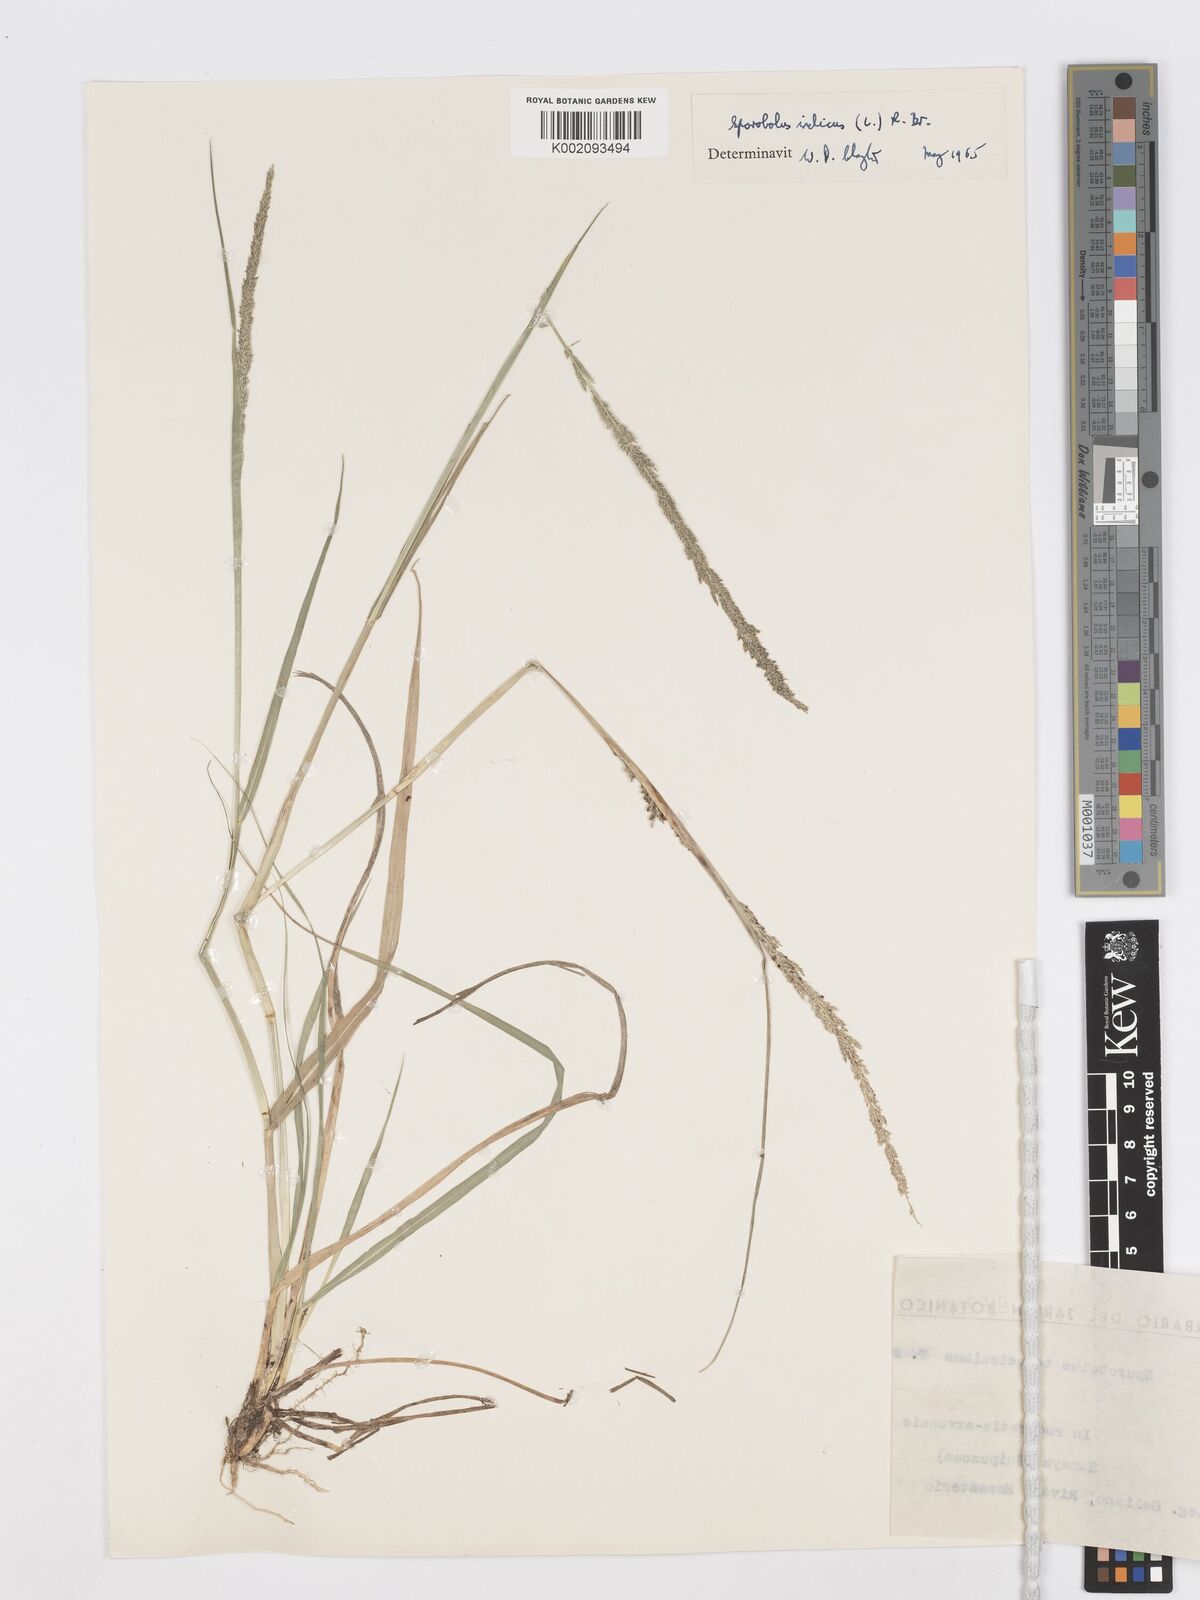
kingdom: Plantae
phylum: Tracheophyta
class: Liliopsida
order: Poales
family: Poaceae
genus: Sporobolus
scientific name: Sporobolus indicus
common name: Smut grass
